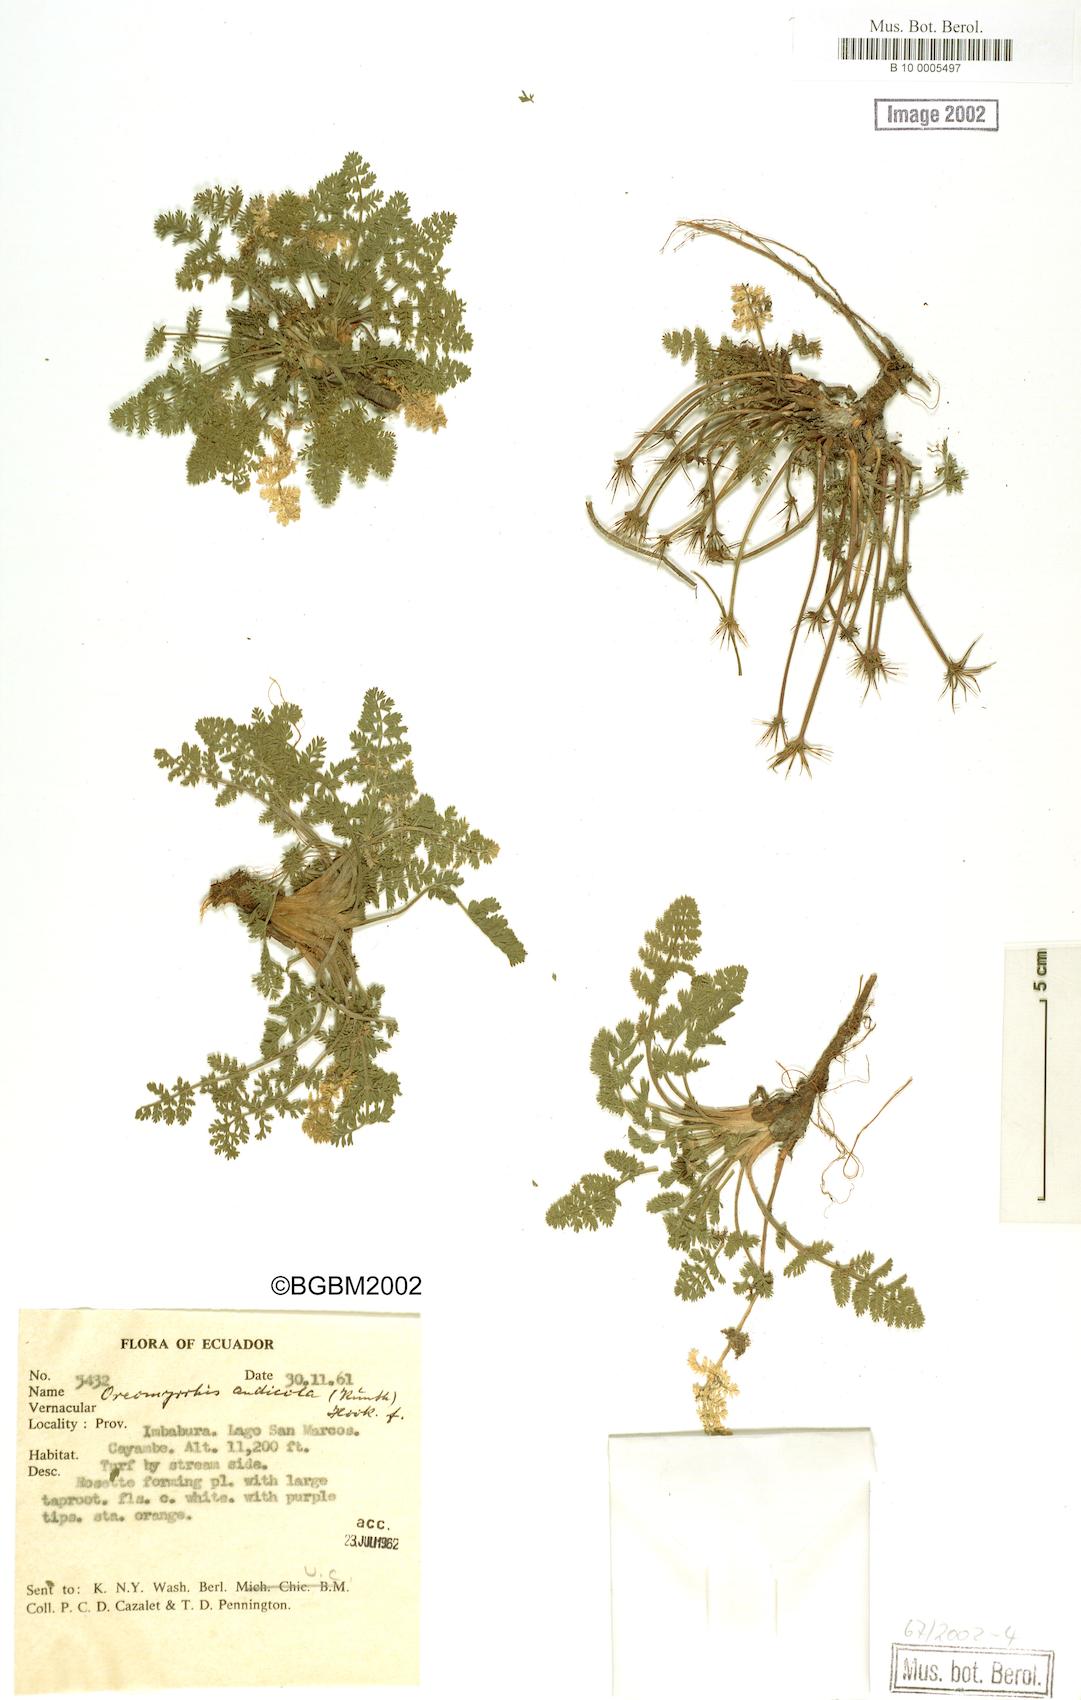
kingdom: Plantae
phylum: Tracheophyta
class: Magnoliopsida
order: Apiales
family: Apiaceae
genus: Chaerophyllum
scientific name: Chaerophyllum andicola
